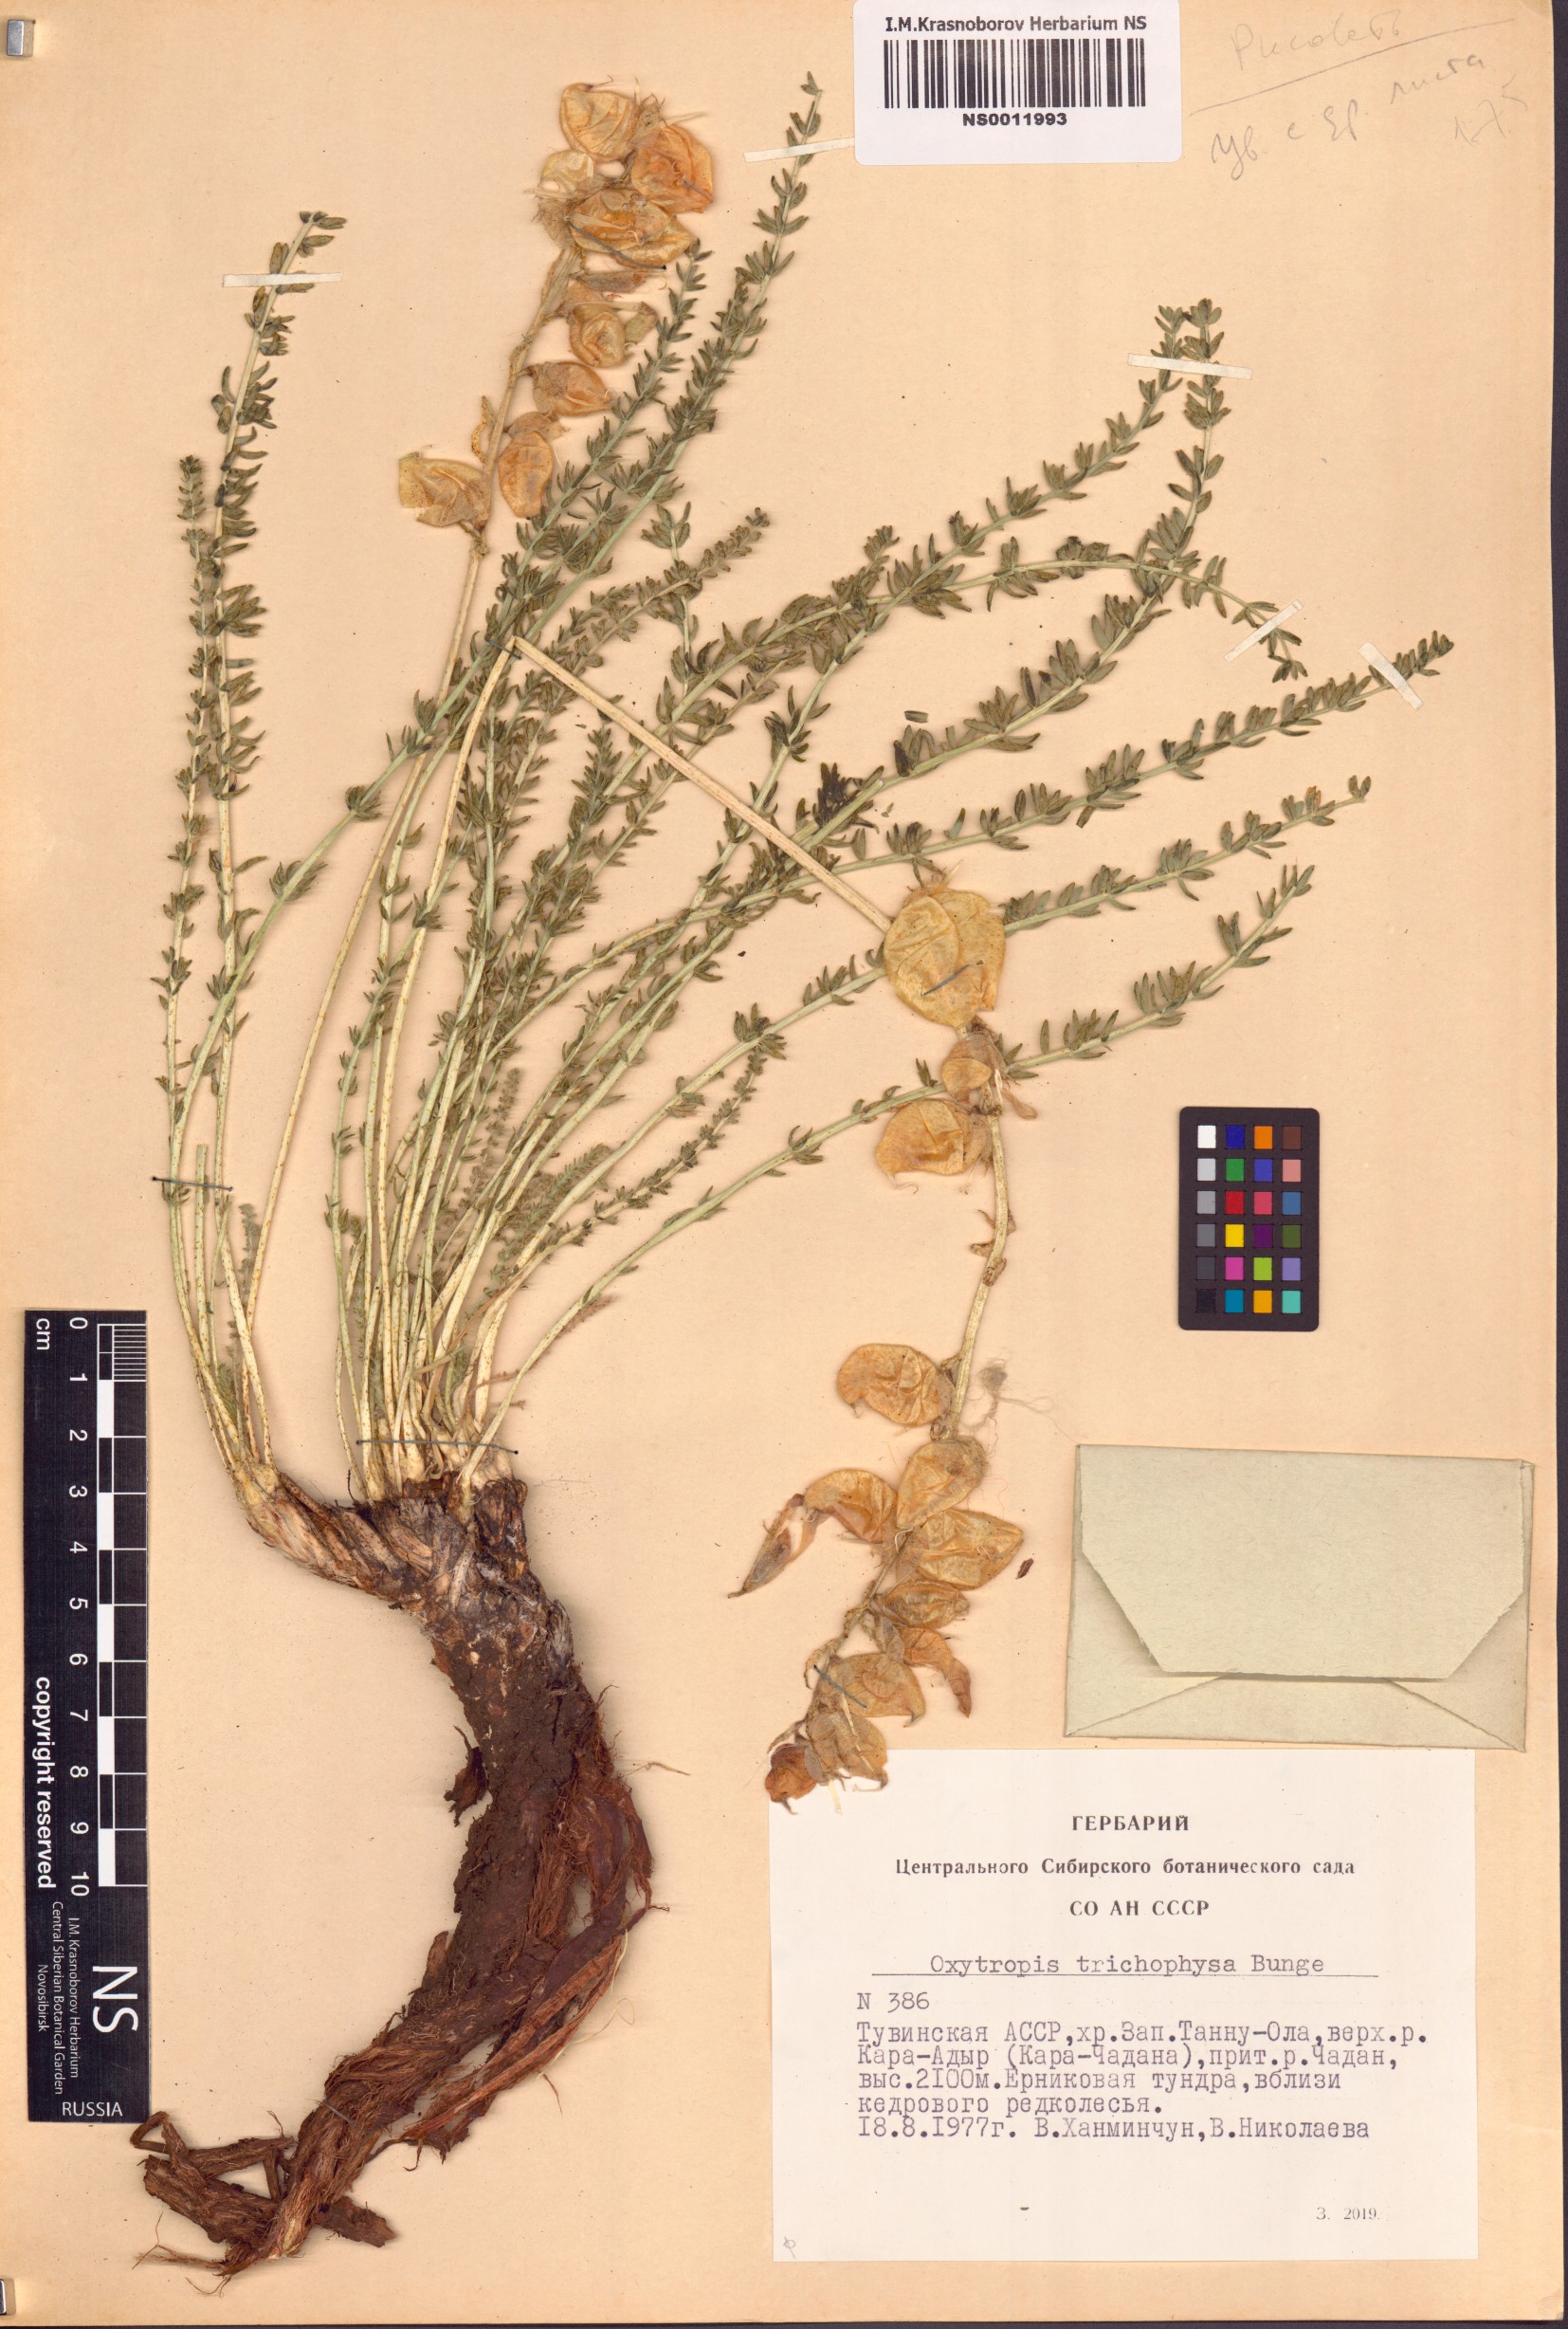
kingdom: Plantae
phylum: Tracheophyta
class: Magnoliopsida
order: Fabales
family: Fabaceae
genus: Oxytropis
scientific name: Oxytropis trichophysa
